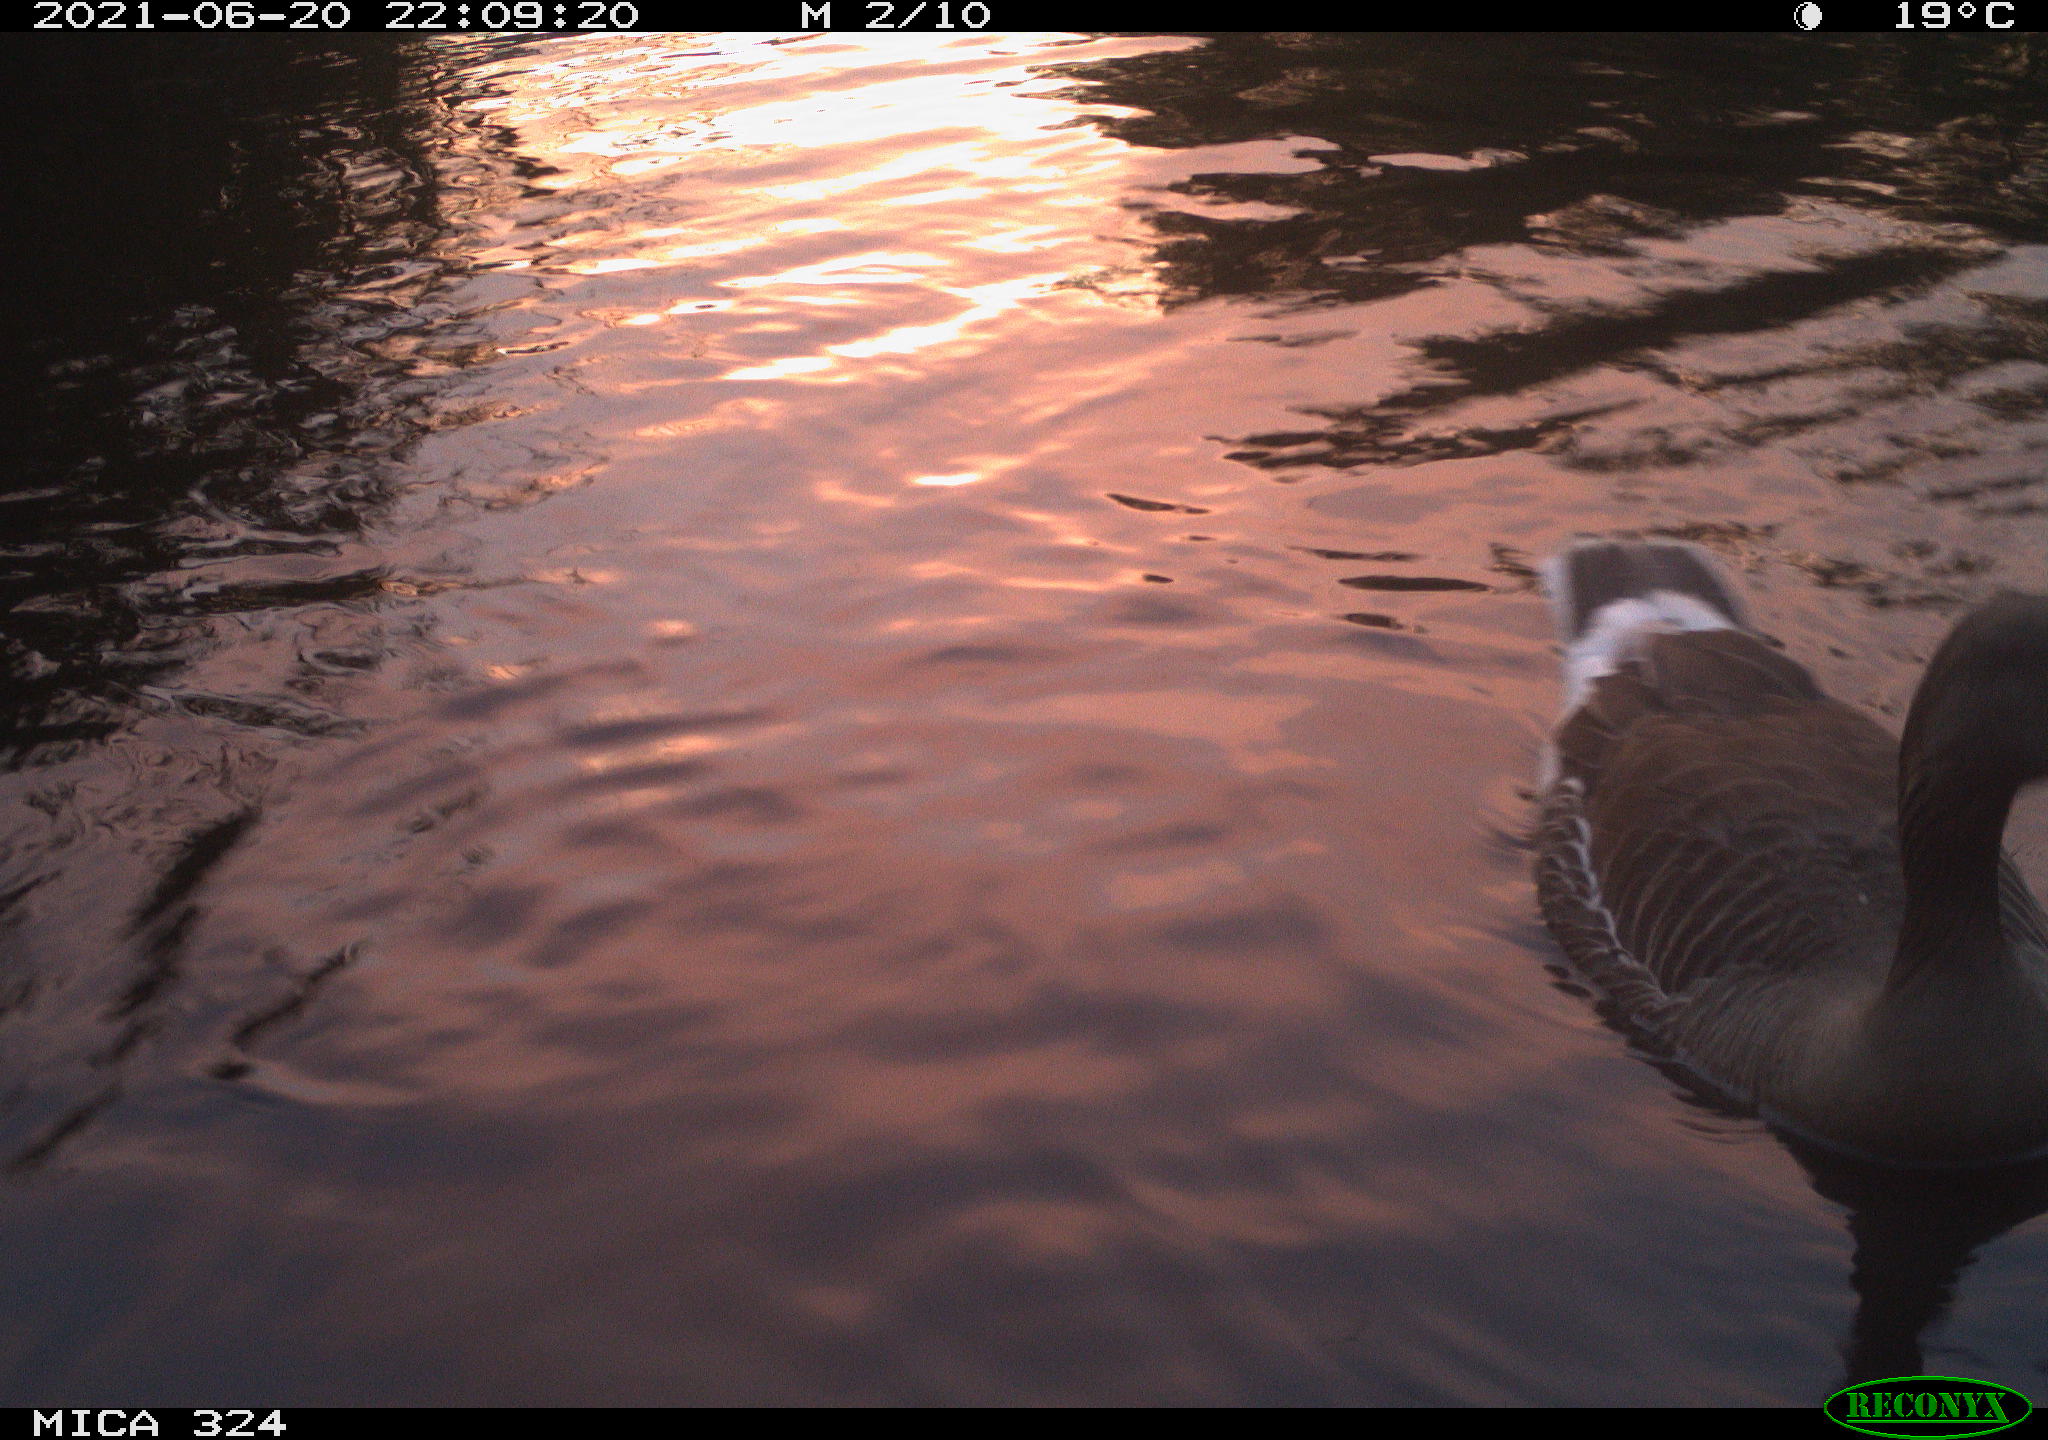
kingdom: Animalia
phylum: Chordata
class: Aves
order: Anseriformes
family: Anatidae
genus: Anser
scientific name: Anser anser
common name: Greylag goose
